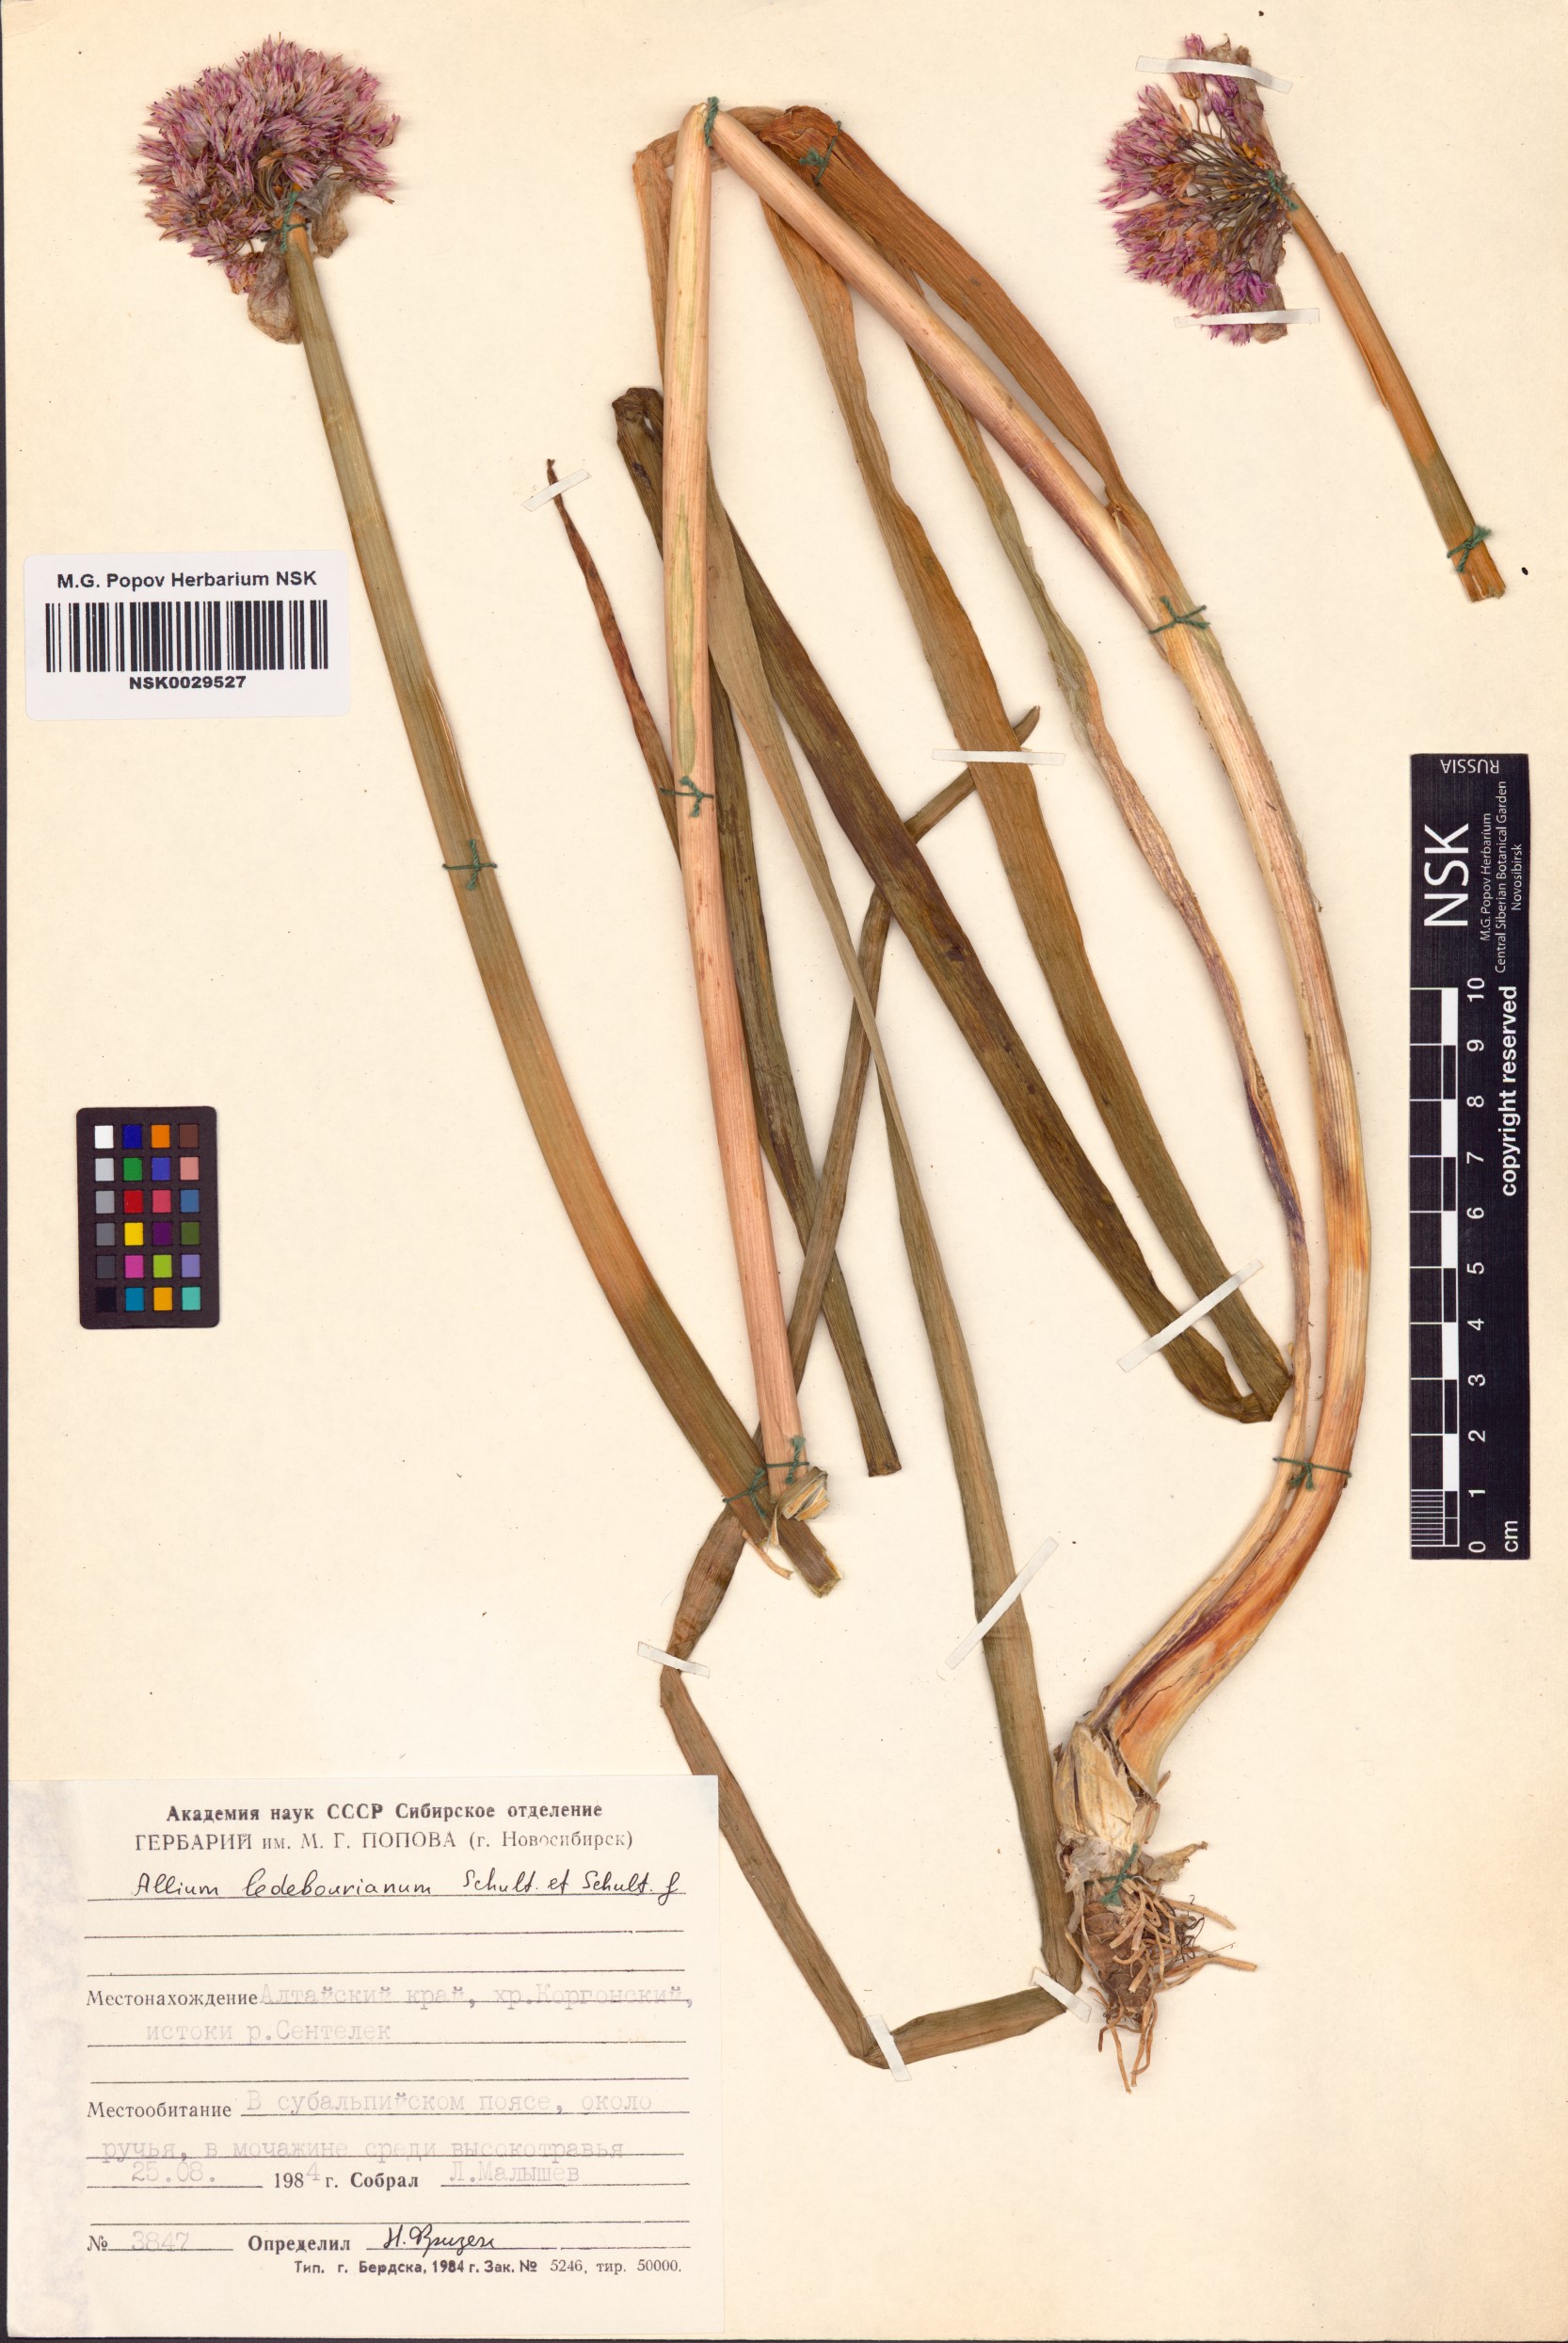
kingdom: Plantae
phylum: Tracheophyta
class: Liliopsida
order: Asparagales
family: Amaryllidaceae
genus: Allium
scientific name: Allium ledebourianum
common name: Ledebour chive
